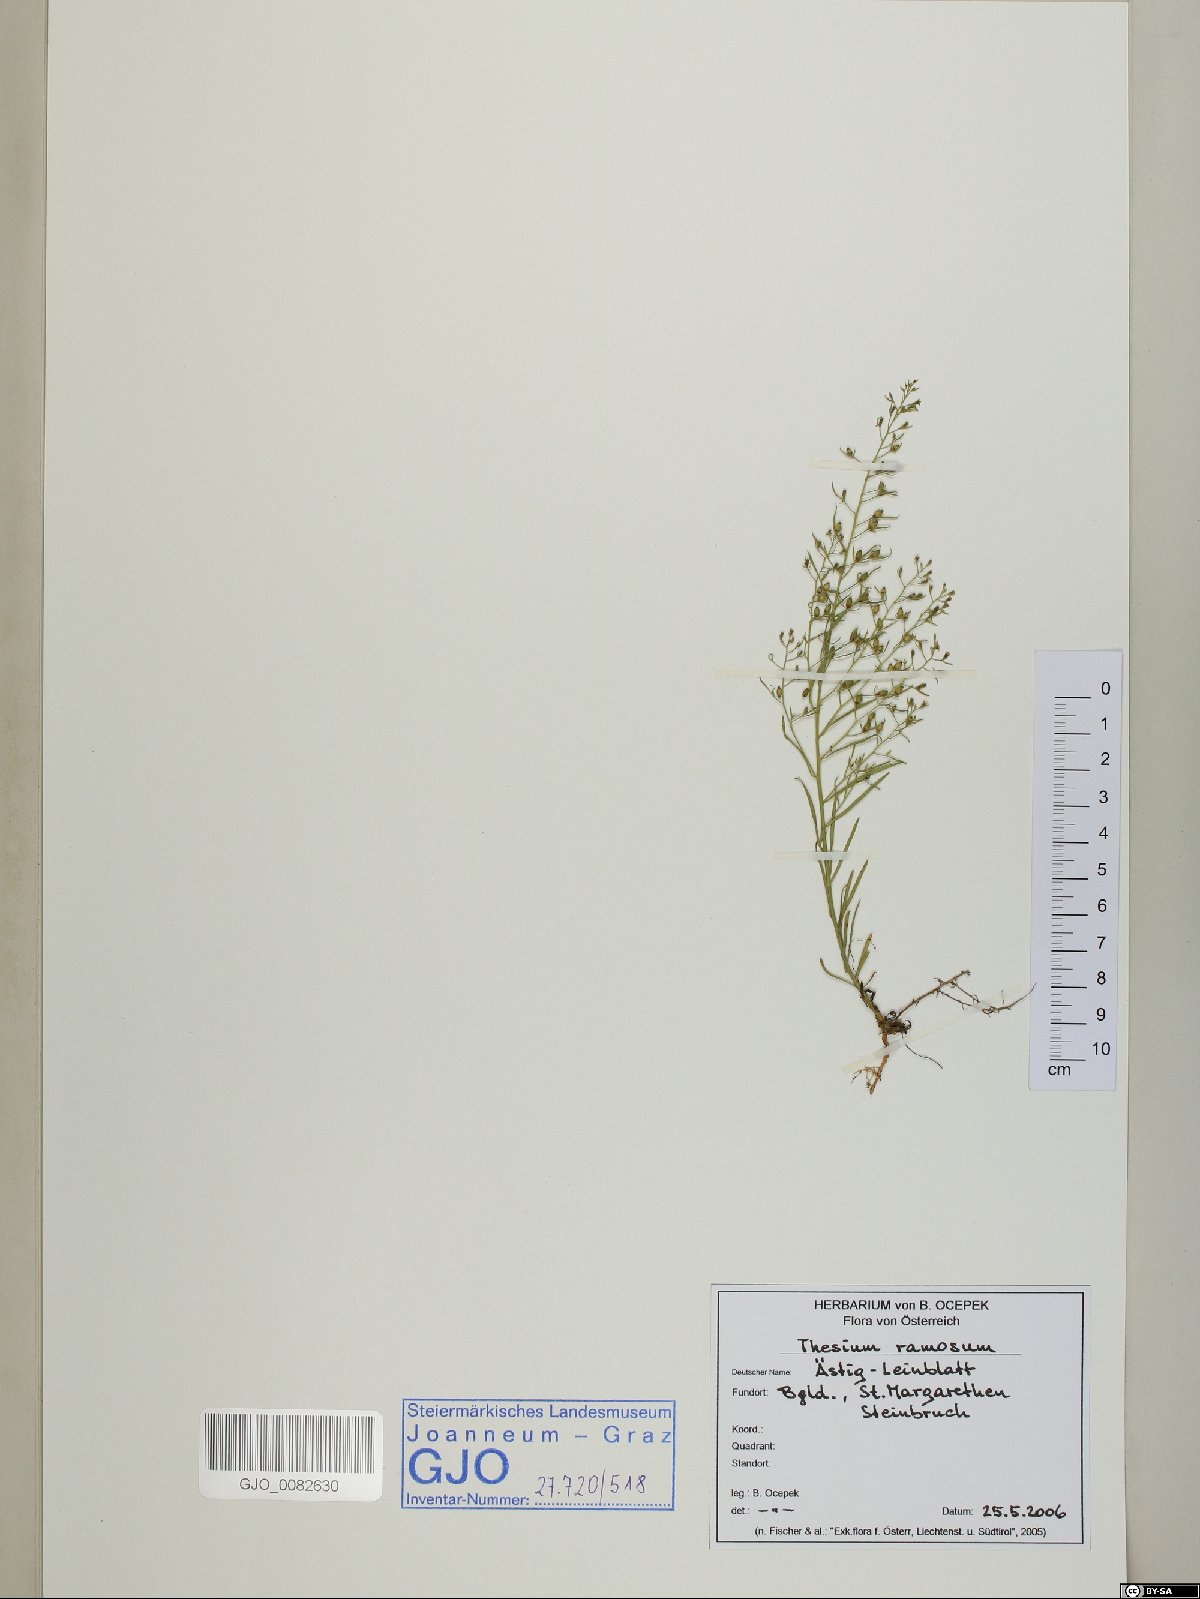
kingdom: Plantae
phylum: Tracheophyta
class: Magnoliopsida
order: Santalales
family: Thesiaceae
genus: Thesium
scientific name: Thesium ramosum
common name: Field thesium
